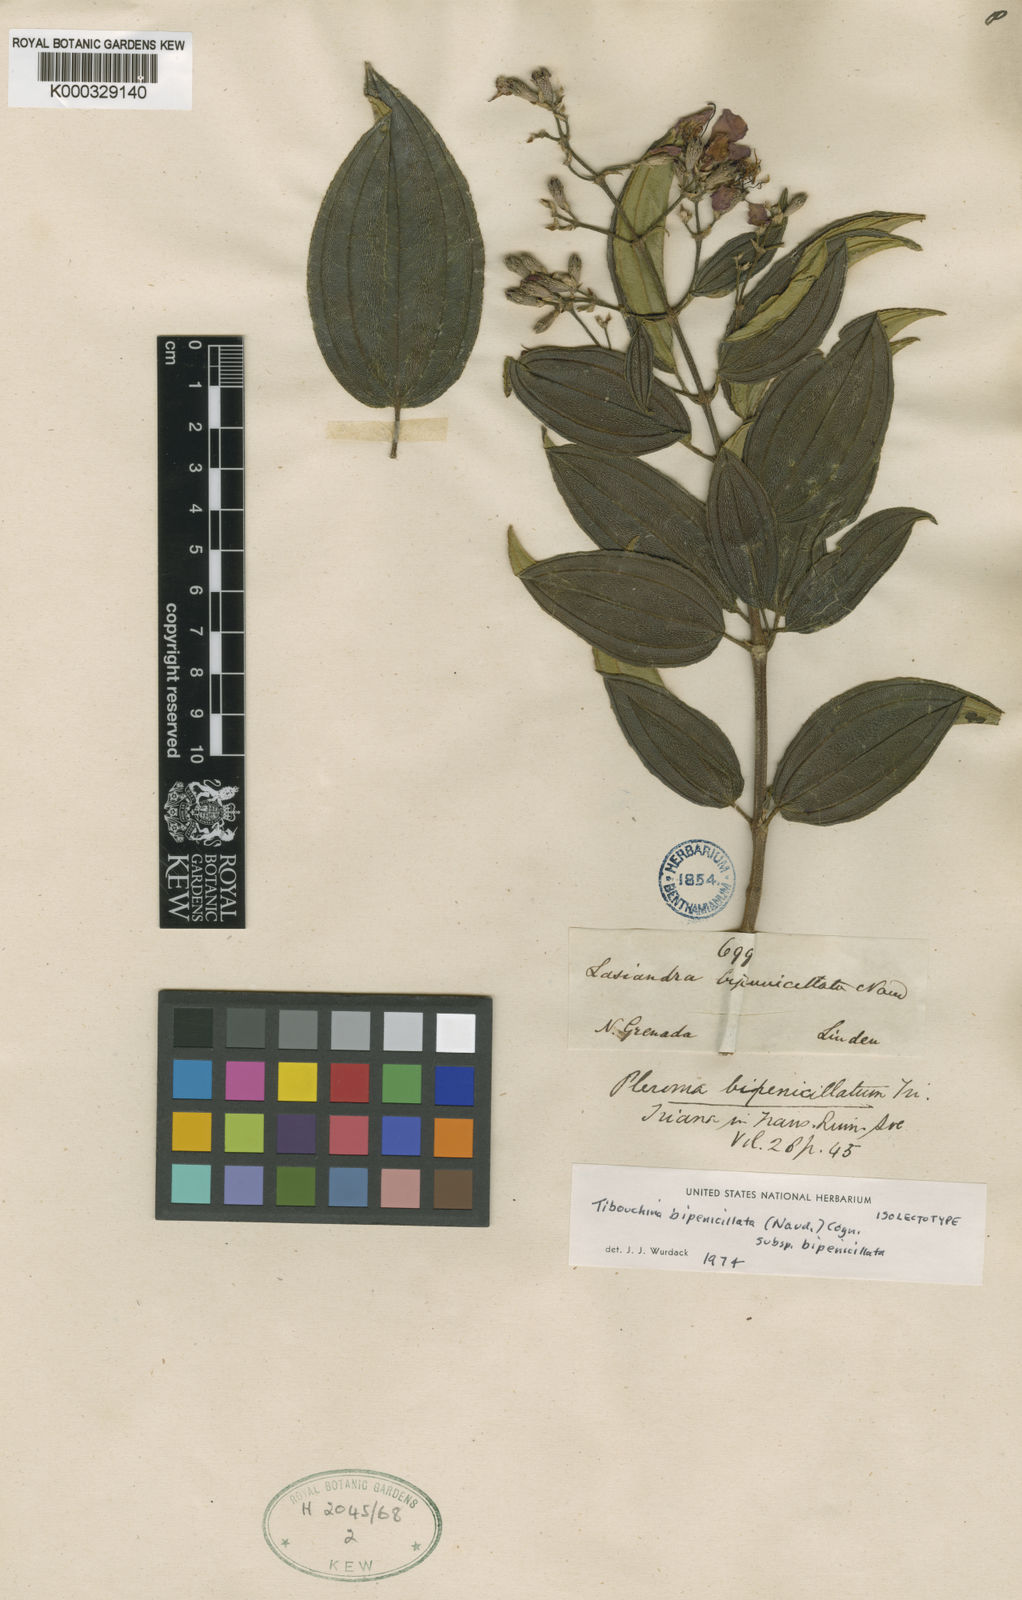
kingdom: Plantae
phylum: Tracheophyta
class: Magnoliopsida
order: Myrtales
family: Melastomataceae
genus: Pleroma
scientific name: Pleroma bipenicillatum
